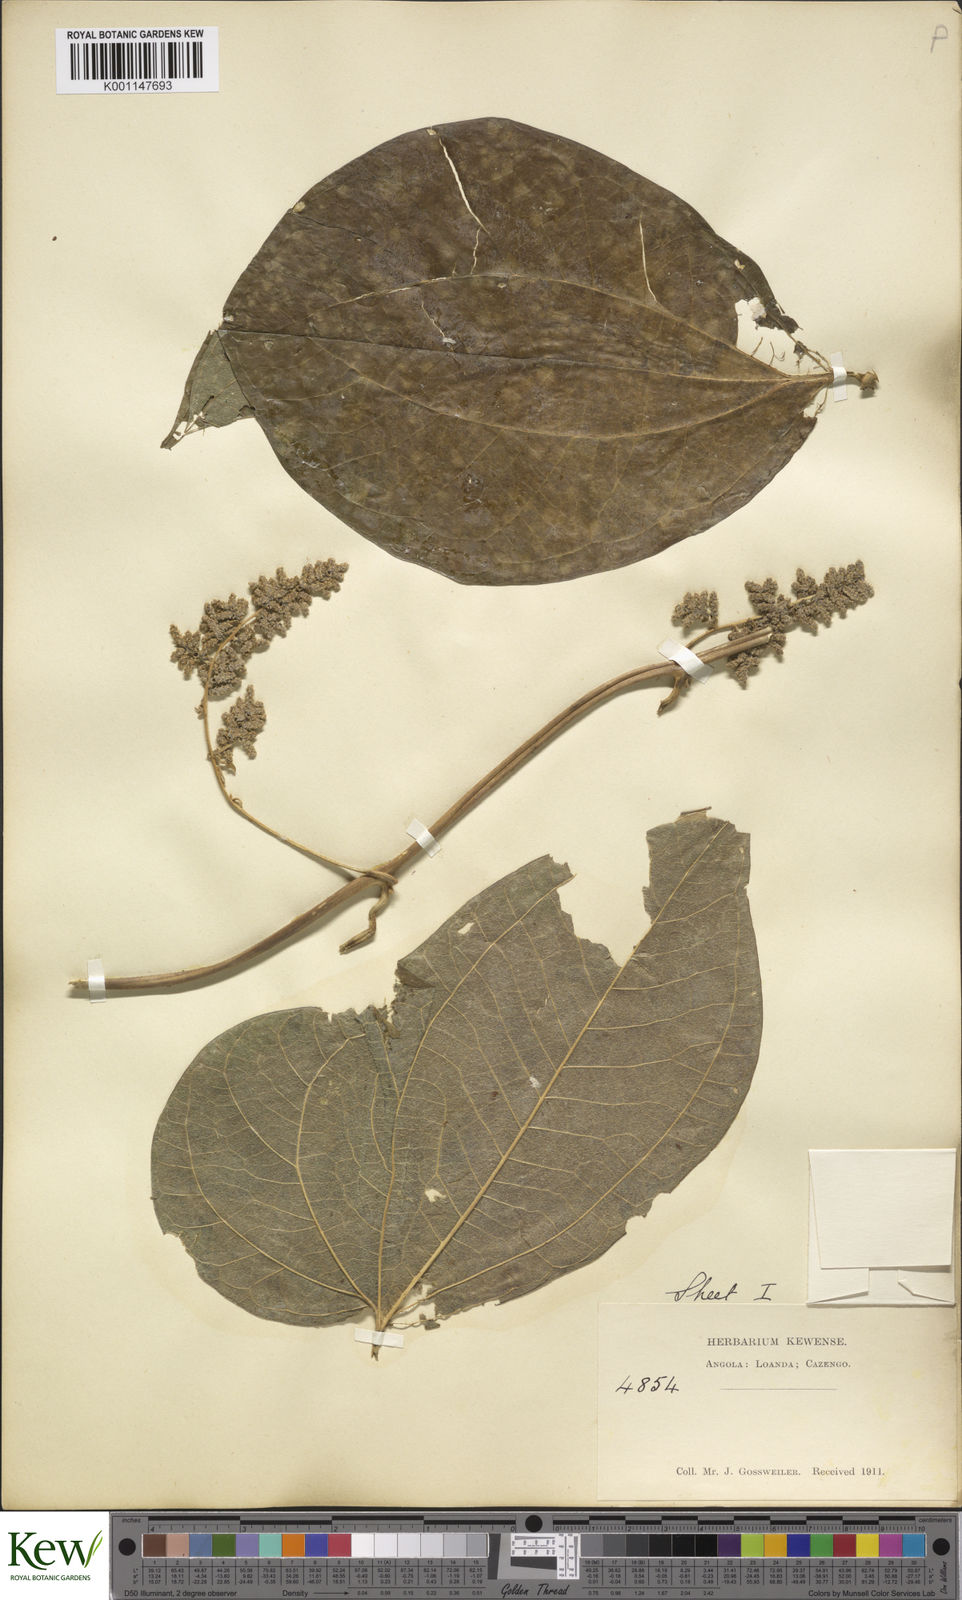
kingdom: Plantae
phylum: Tracheophyta
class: Liliopsida
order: Dioscoreales
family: Dioscoreaceae
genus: Dioscorea
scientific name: Dioscorea dumetorum
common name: African bitter yam
